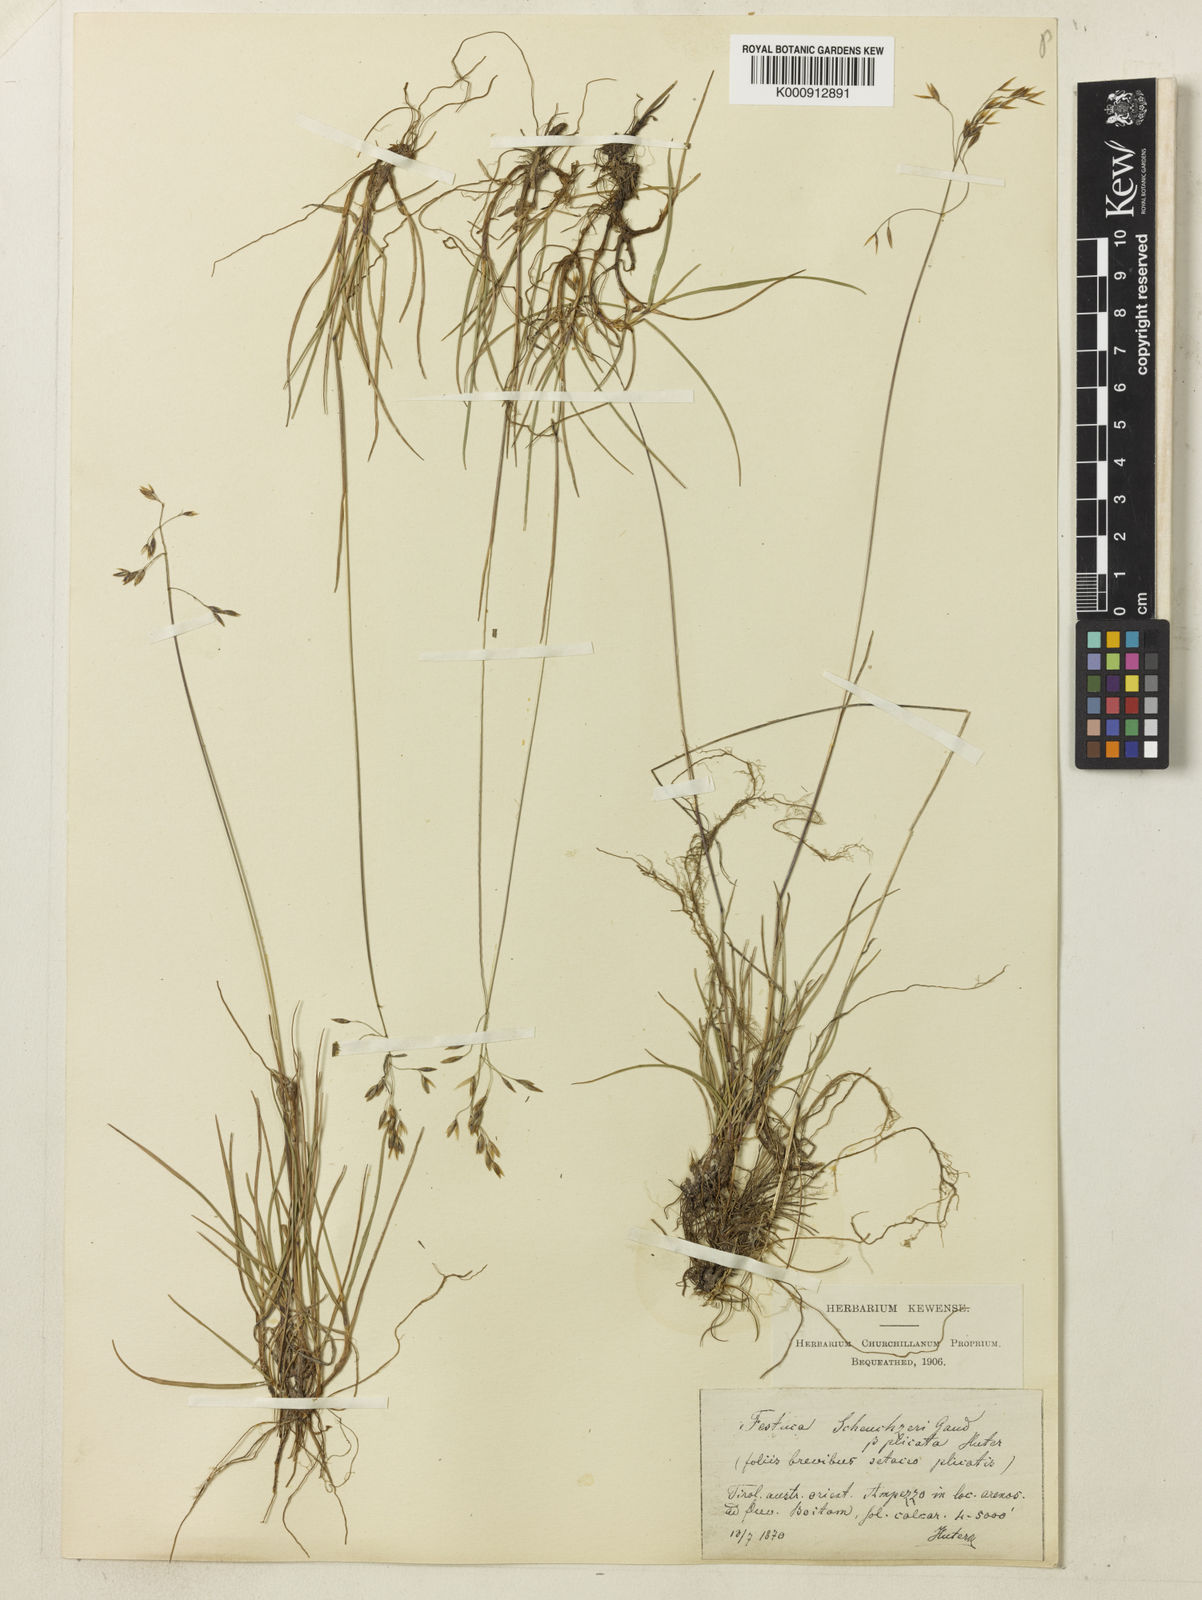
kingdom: Plantae
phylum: Tracheophyta
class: Liliopsida
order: Poales
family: Poaceae
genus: Festuca
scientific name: Festuca pulchella
